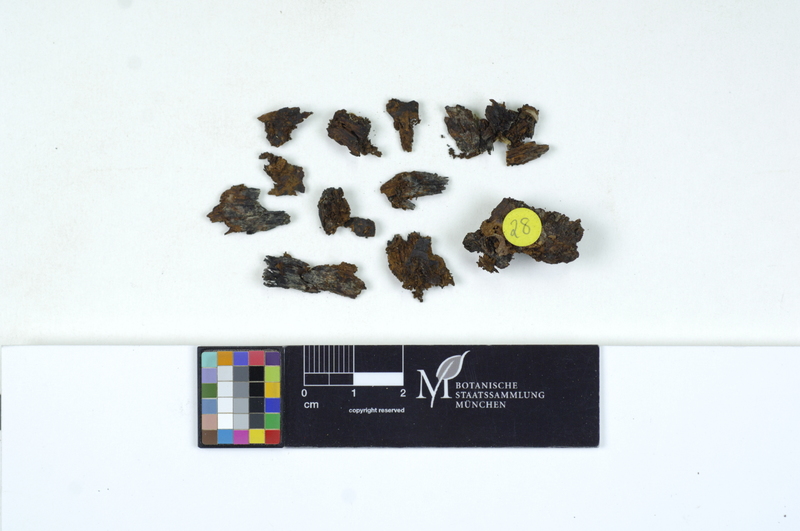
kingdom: Fungi
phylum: Basidiomycota
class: Agaricomycetes
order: Polyporales
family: Polyporaceae
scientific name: Polyporaceae
